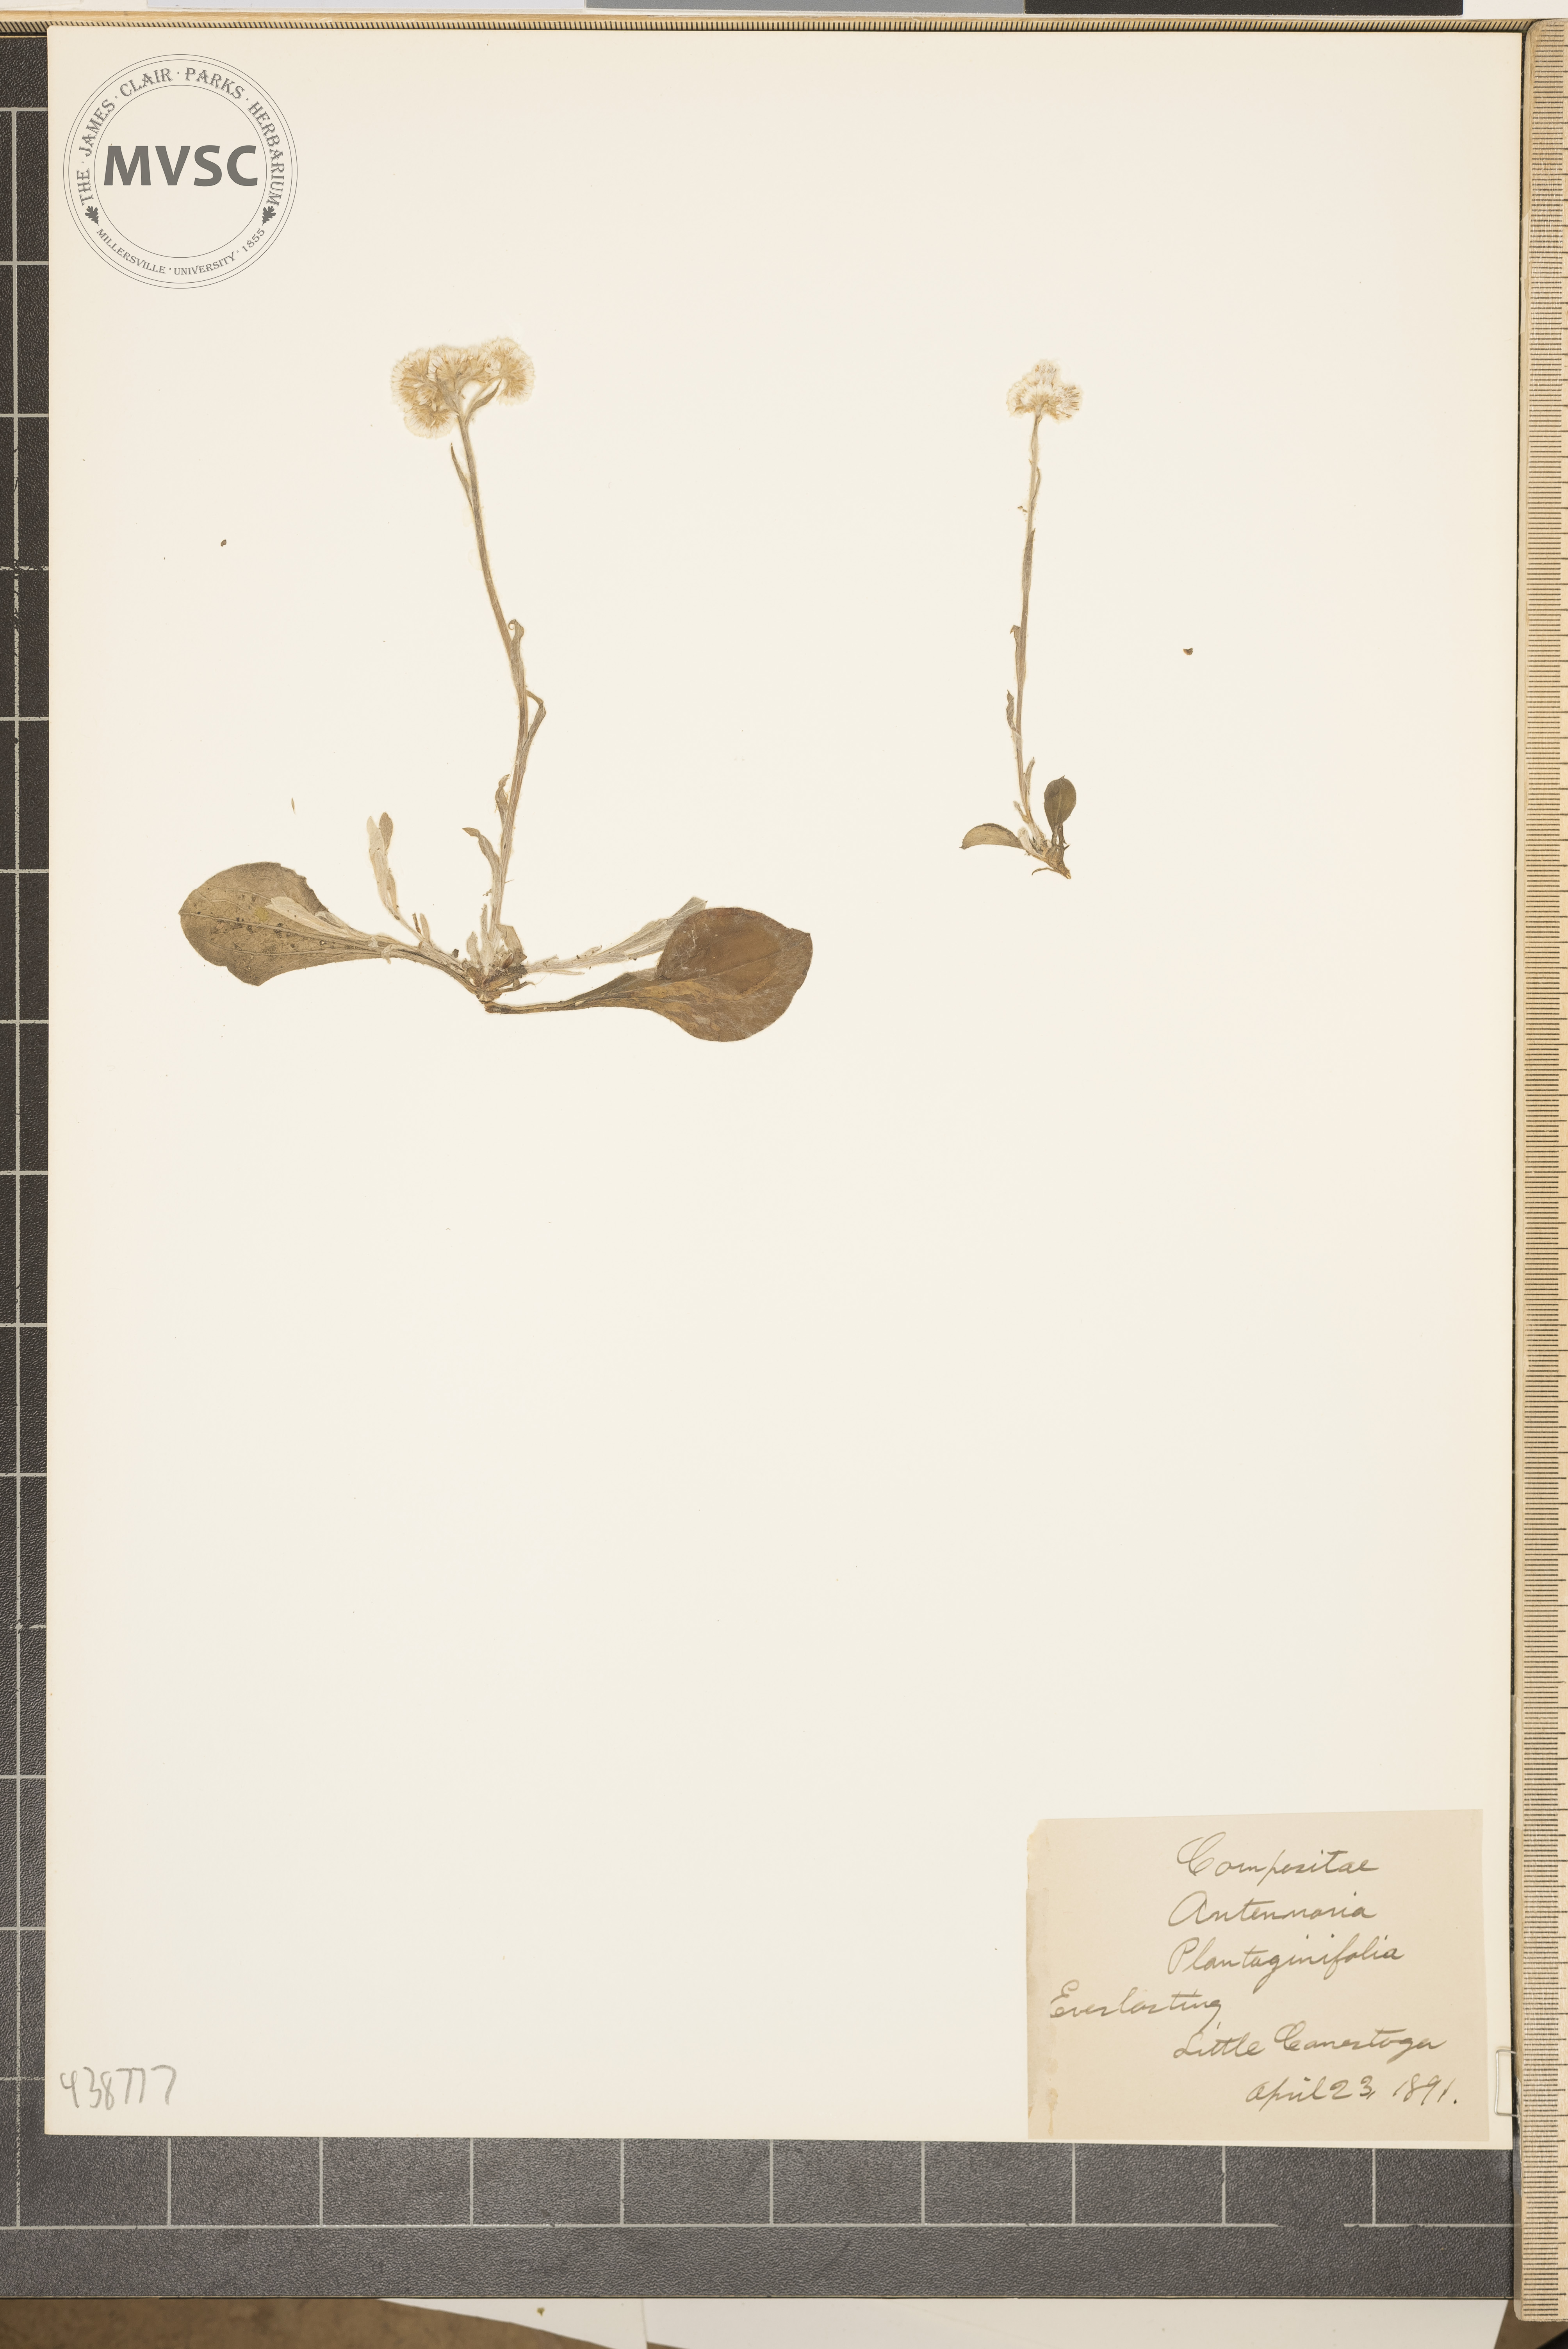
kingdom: Plantae
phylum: Tracheophyta
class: Magnoliopsida
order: Asterales
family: Asteraceae
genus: Antennaria
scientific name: Antennaria plantaginifolia
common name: Everlasting
